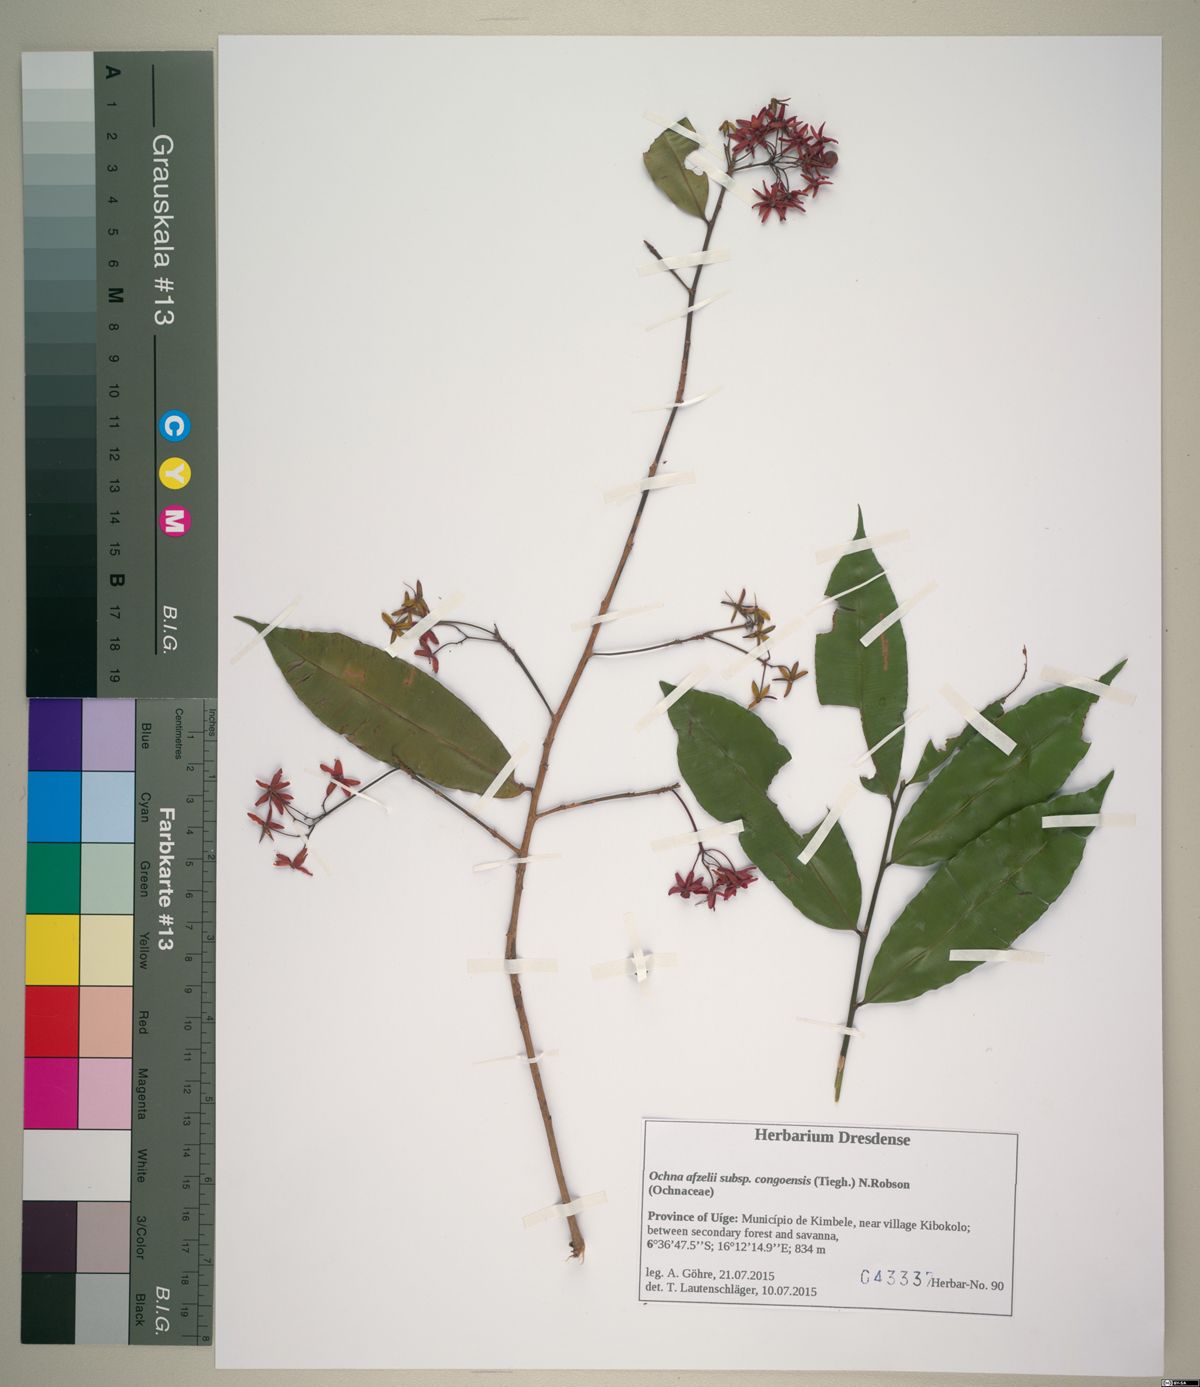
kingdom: Plantae
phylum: Tracheophyta
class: Magnoliopsida
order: Malpighiales
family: Ochnaceae
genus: Rhabdophyllum
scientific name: Rhabdophyllum welwitschii
